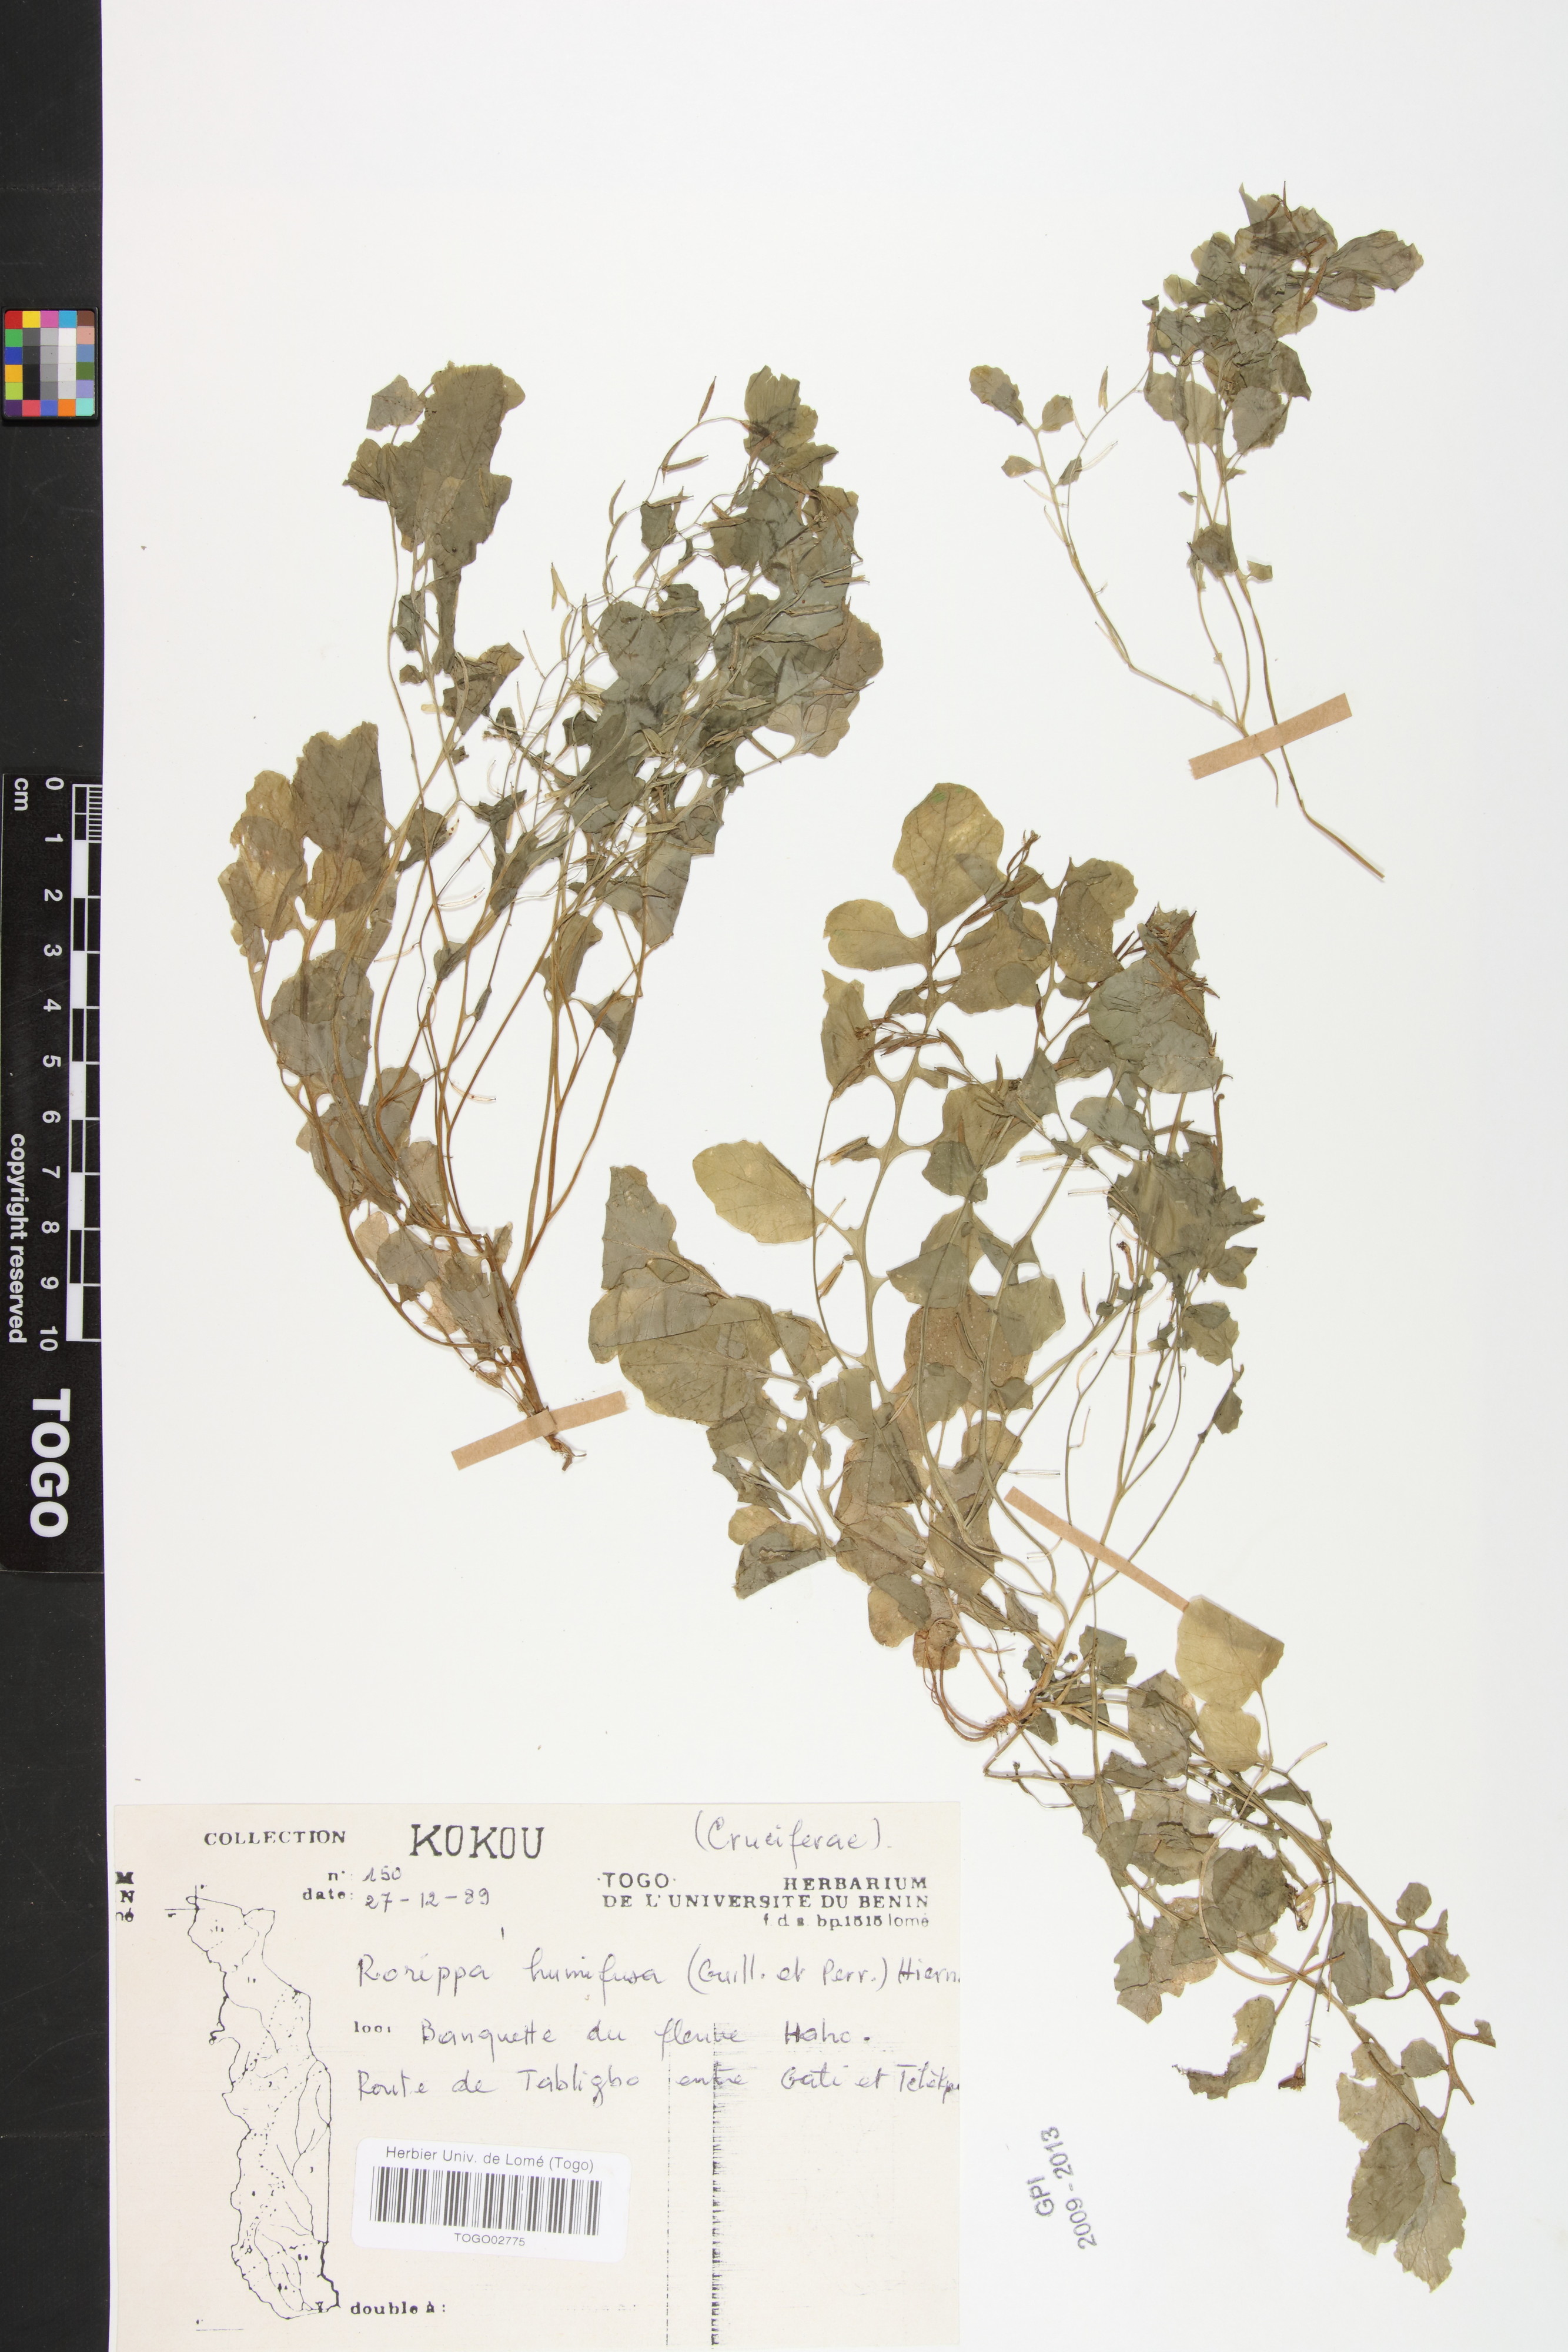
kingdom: Plantae
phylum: Tracheophyta
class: Magnoliopsida
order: Brassicales
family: Brassicaceae
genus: Rorippa
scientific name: Rorippa humifusa
